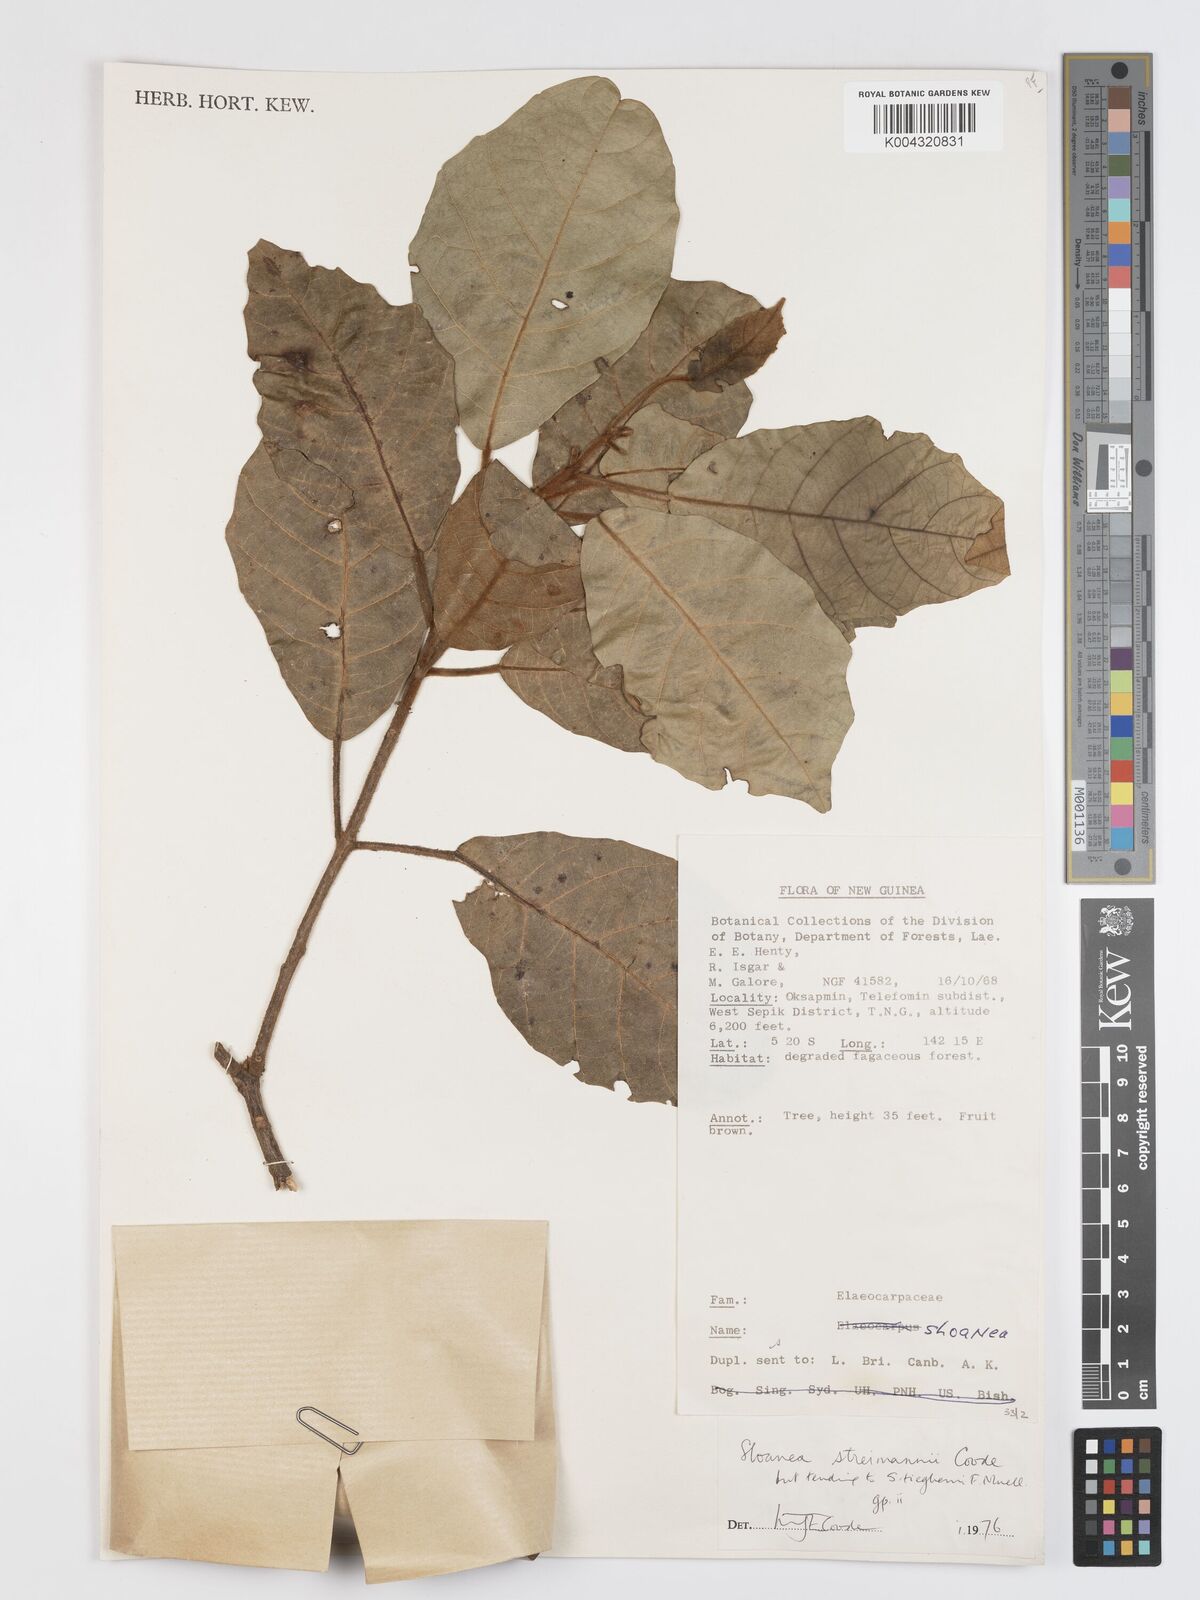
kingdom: Plantae
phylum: Tracheophyta
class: Magnoliopsida
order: Oxalidales
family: Elaeocarpaceae
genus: Sloanea
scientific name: Sloanea streimannii
